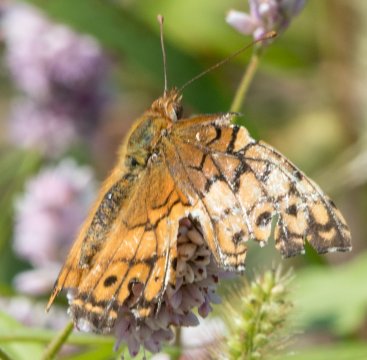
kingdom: Animalia
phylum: Arthropoda
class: Insecta
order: Lepidoptera
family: Nymphalidae
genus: Euptoieta
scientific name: Euptoieta claudia
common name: Variegated Fritillary
